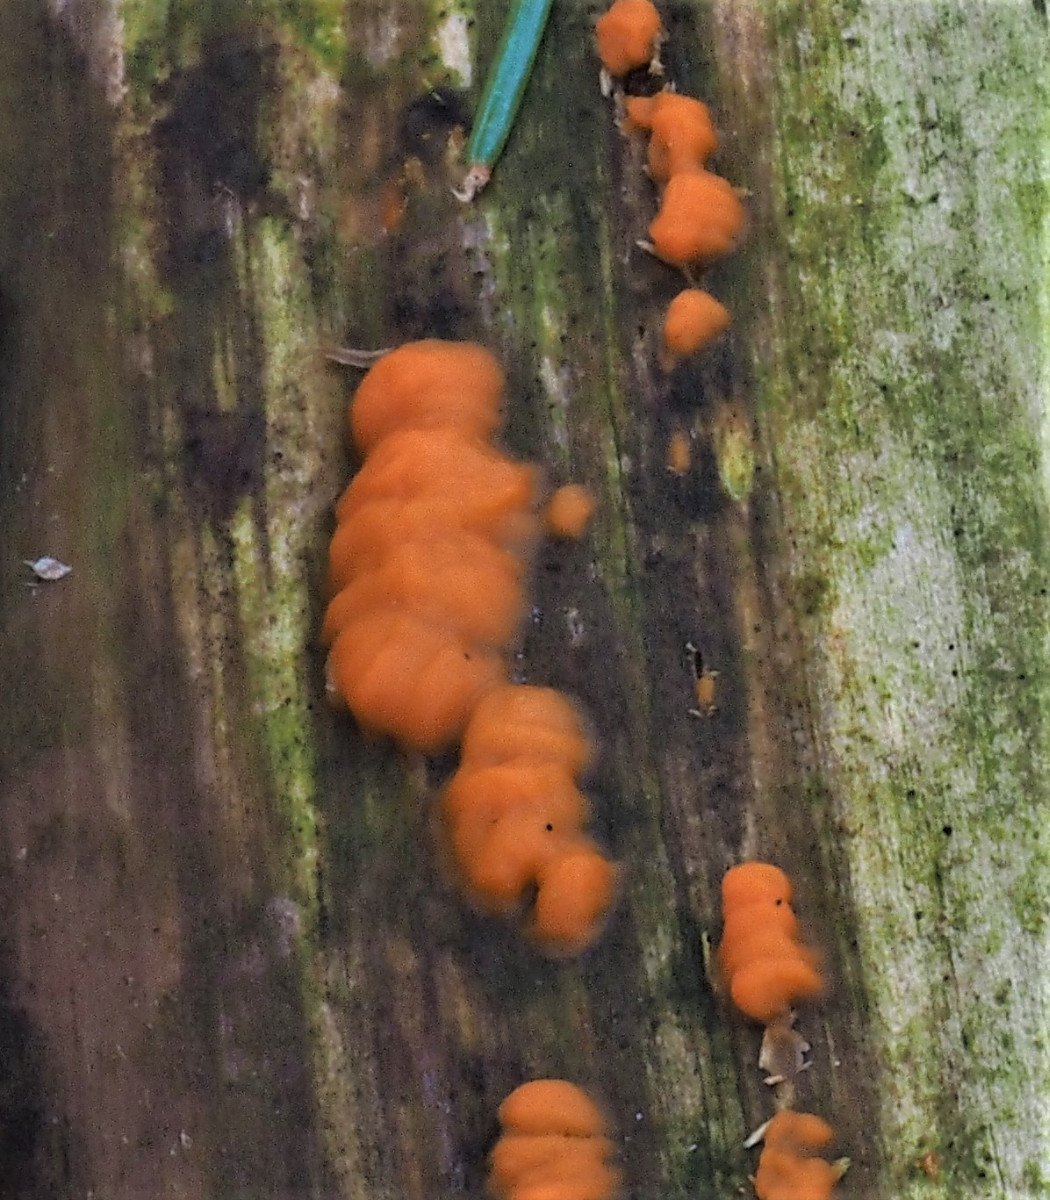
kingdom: Fungi
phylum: Basidiomycota
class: Dacrymycetes
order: Dacrymycetales
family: Dacrymycetaceae
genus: Dacrymyces
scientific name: Dacrymyces stillatus
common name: almindelig tåresvamp
